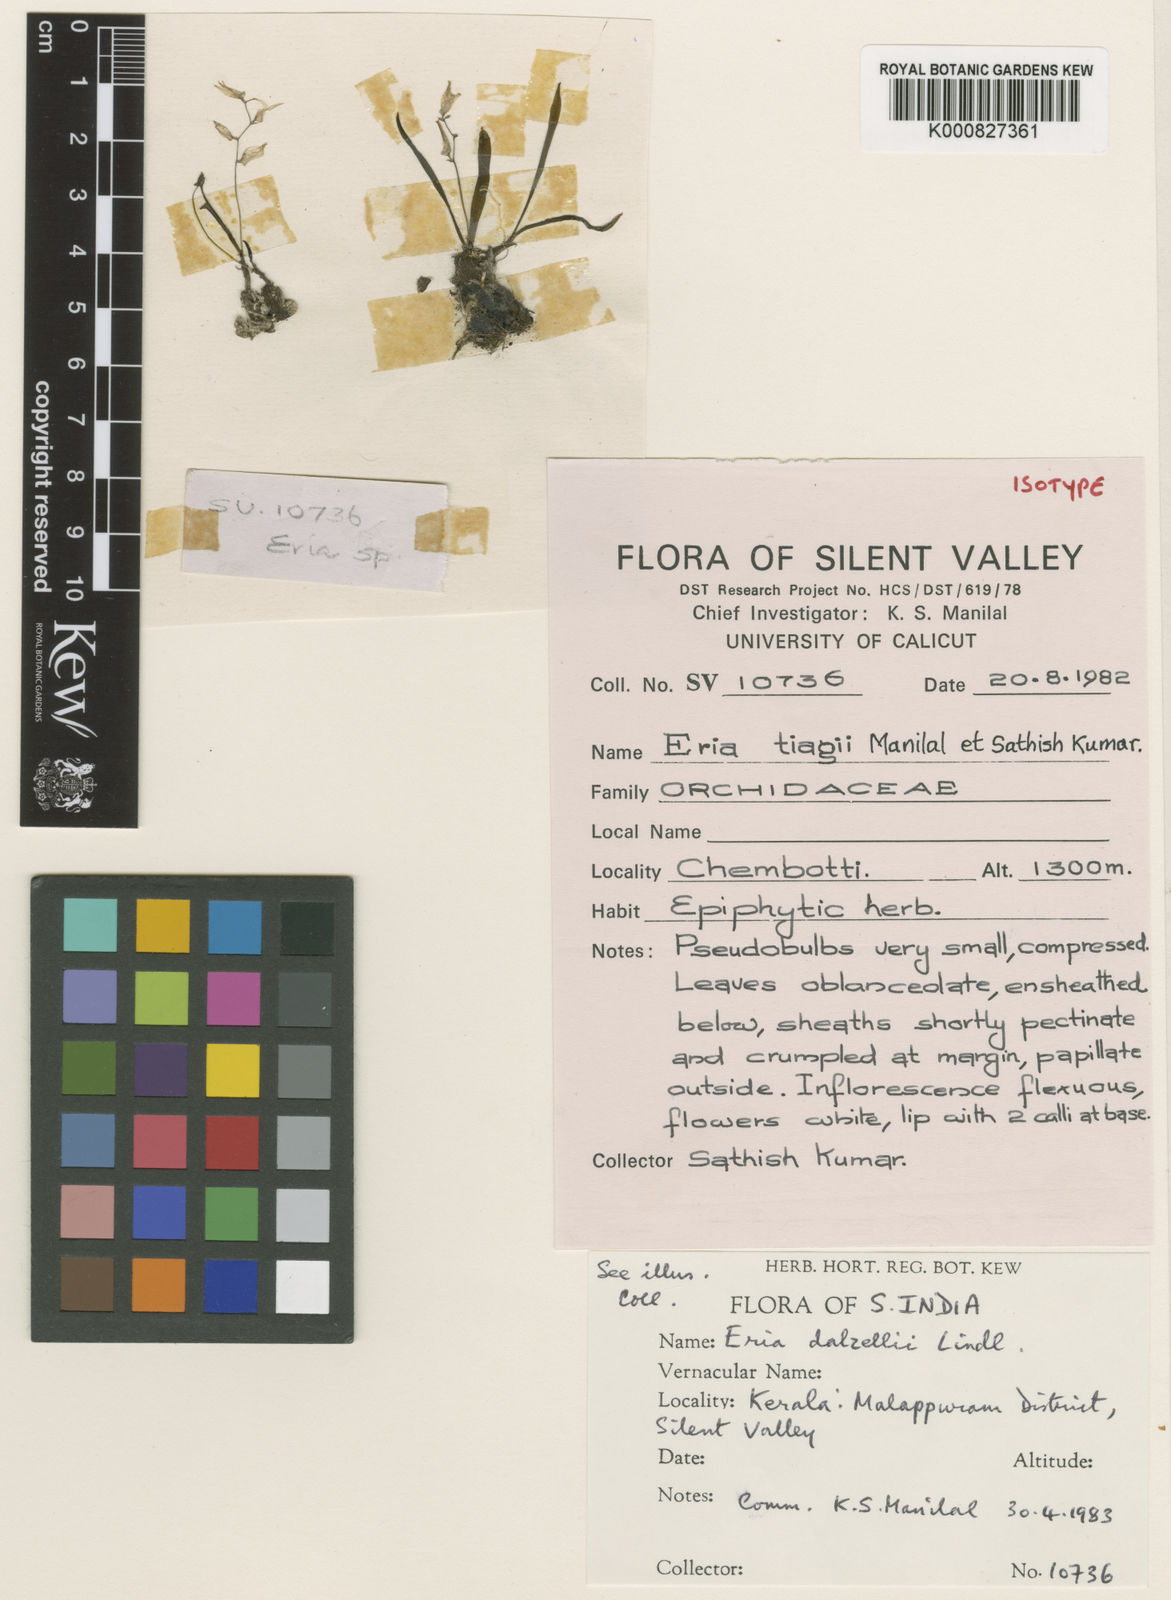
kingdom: Plantae
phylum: Tracheophyta
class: Liliopsida
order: Asparagales
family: Orchidaceae
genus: Porpax
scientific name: Porpax microchilos
